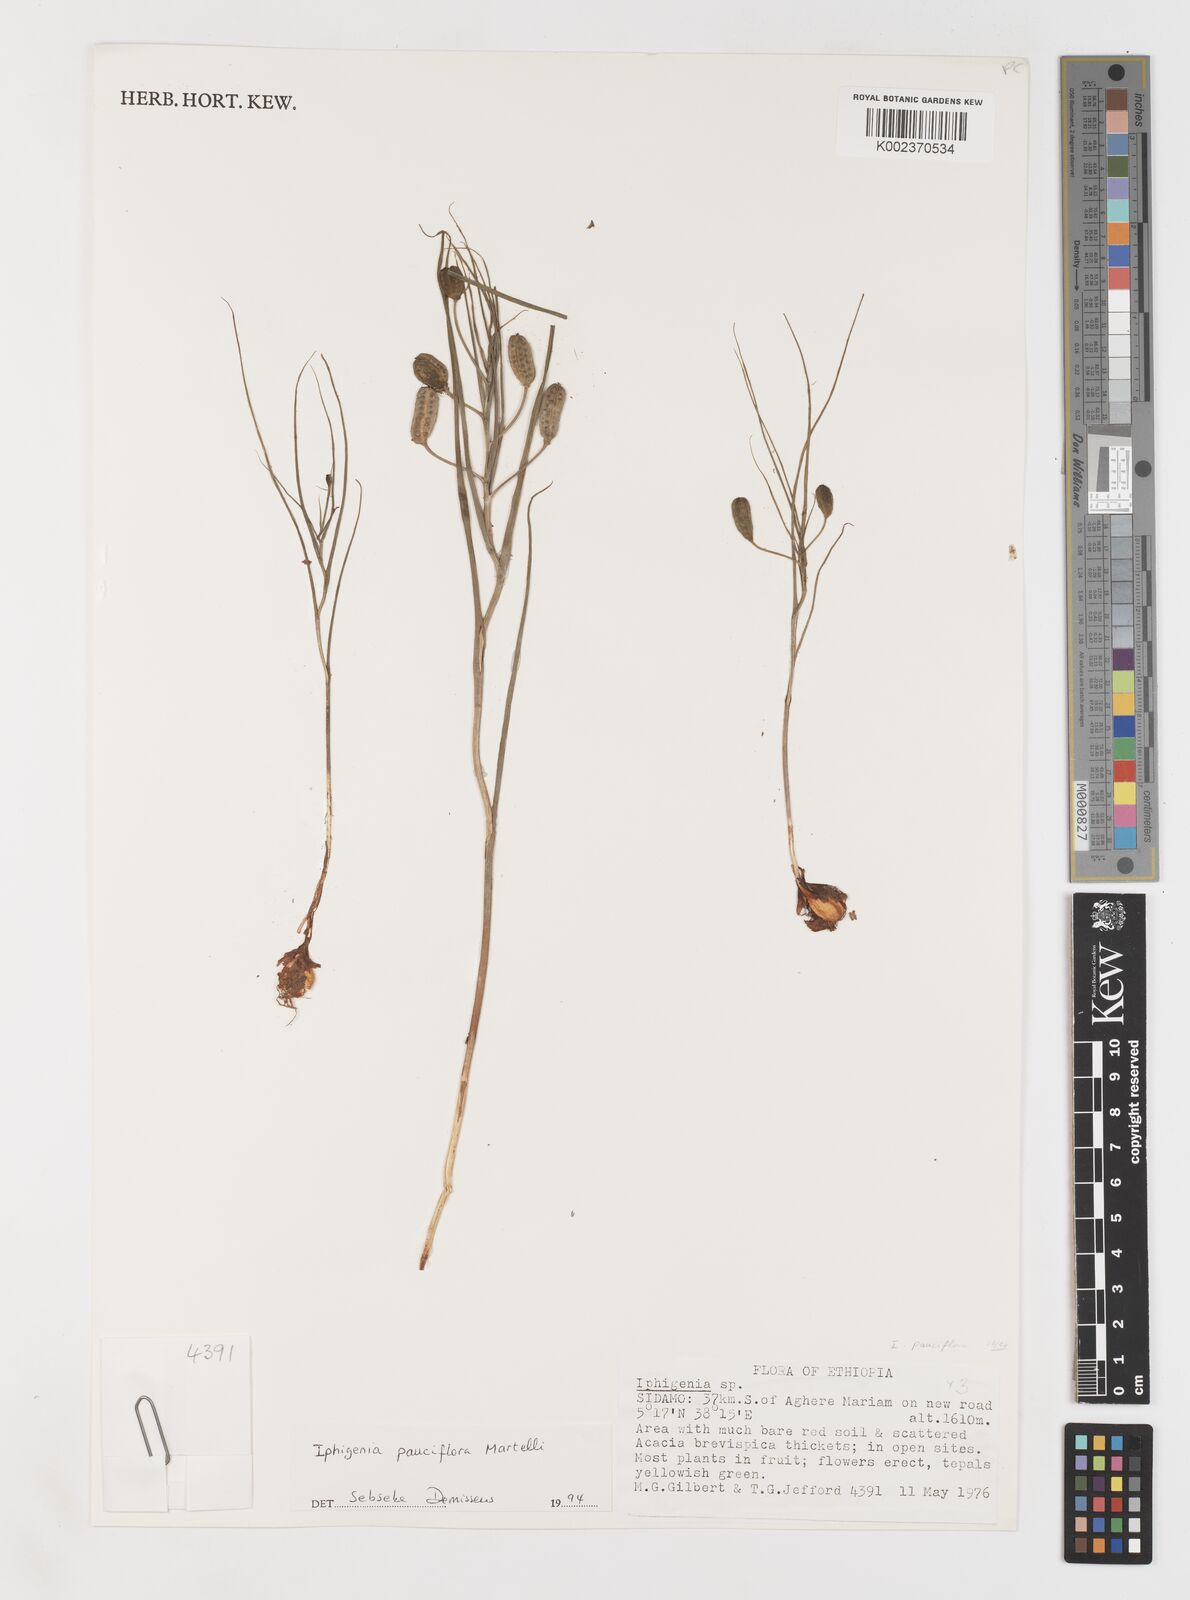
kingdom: Plantae
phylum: Tracheophyta
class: Liliopsida
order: Liliales
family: Colchicaceae
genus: Iphigenia
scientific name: Iphigenia pauciflora
